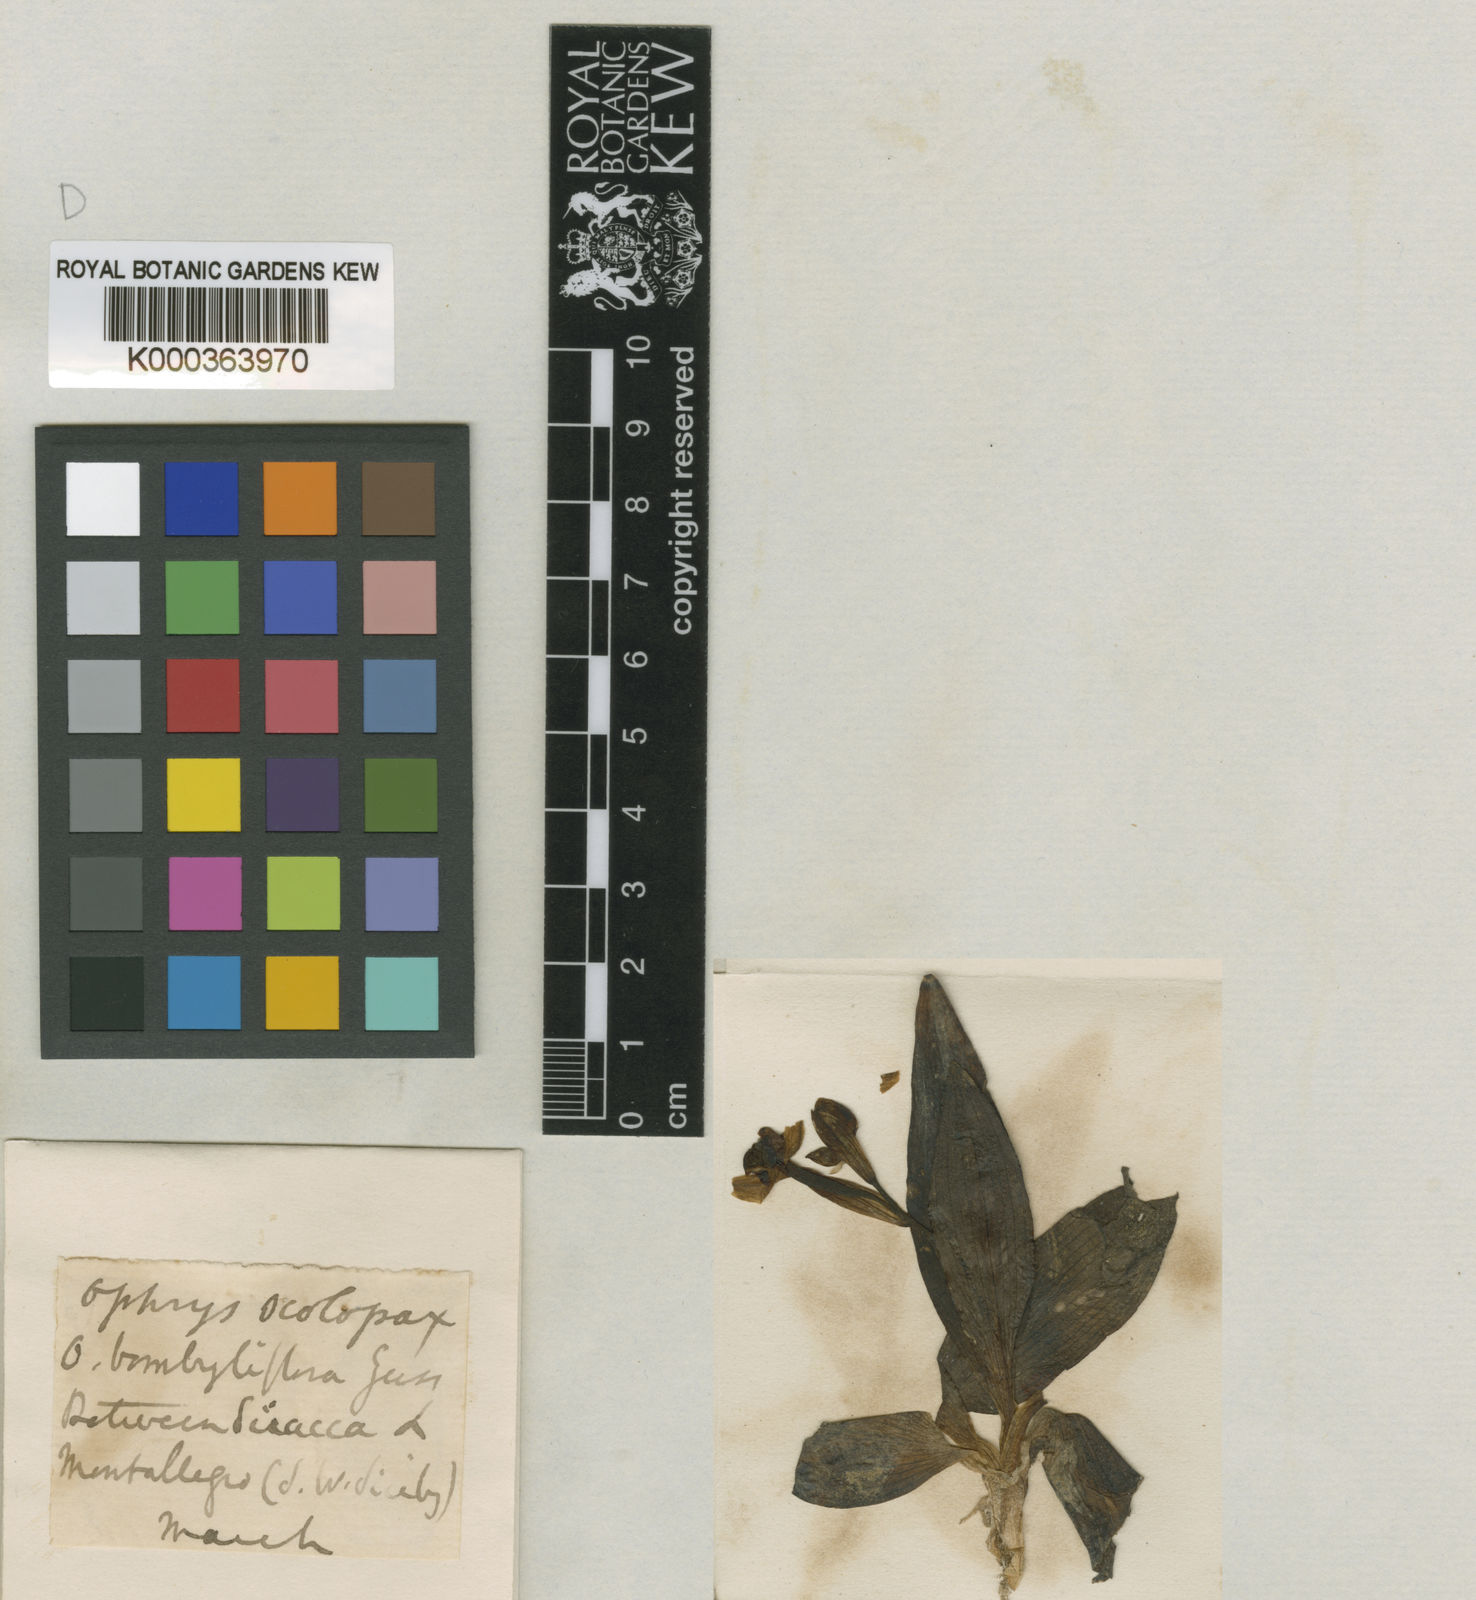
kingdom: Plantae
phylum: Tracheophyta
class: Liliopsida
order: Asparagales
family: Orchidaceae
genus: Ophrys
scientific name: Ophrys scolopax
